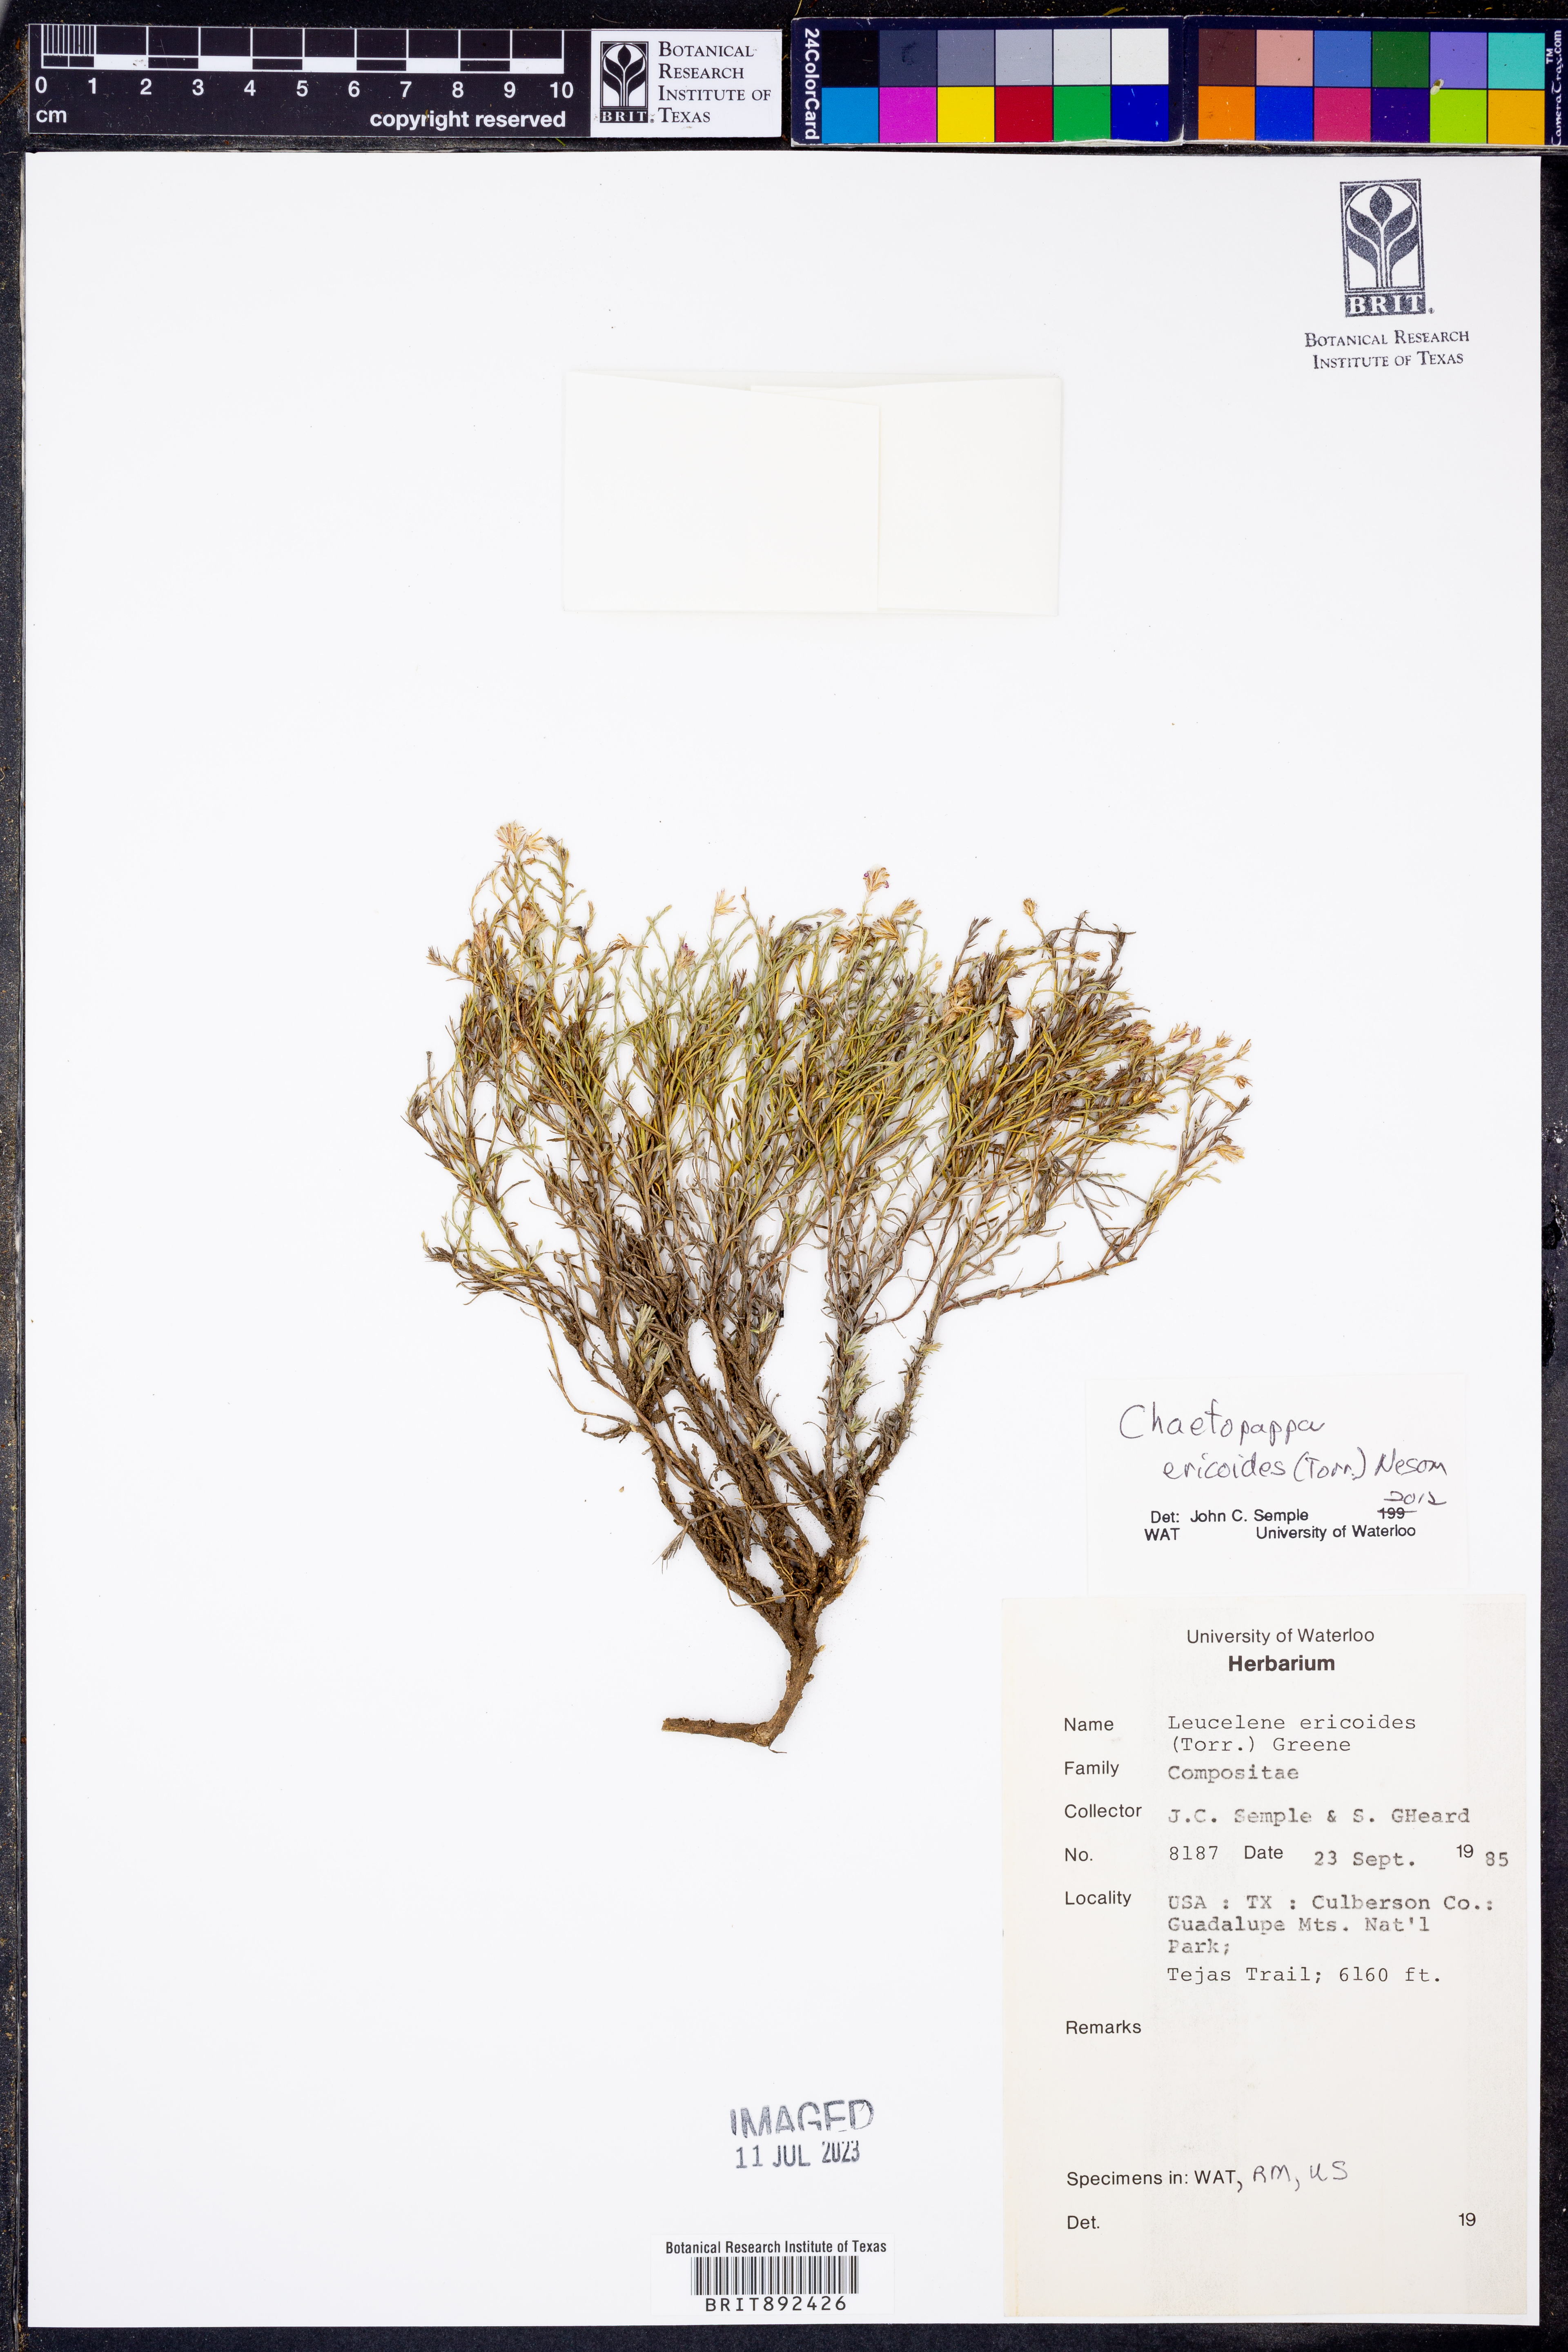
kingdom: Plantae
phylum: Tracheophyta
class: Magnoliopsida
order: Asterales
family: Asteraceae
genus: Chaetopappa
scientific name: Chaetopappa ericoides
